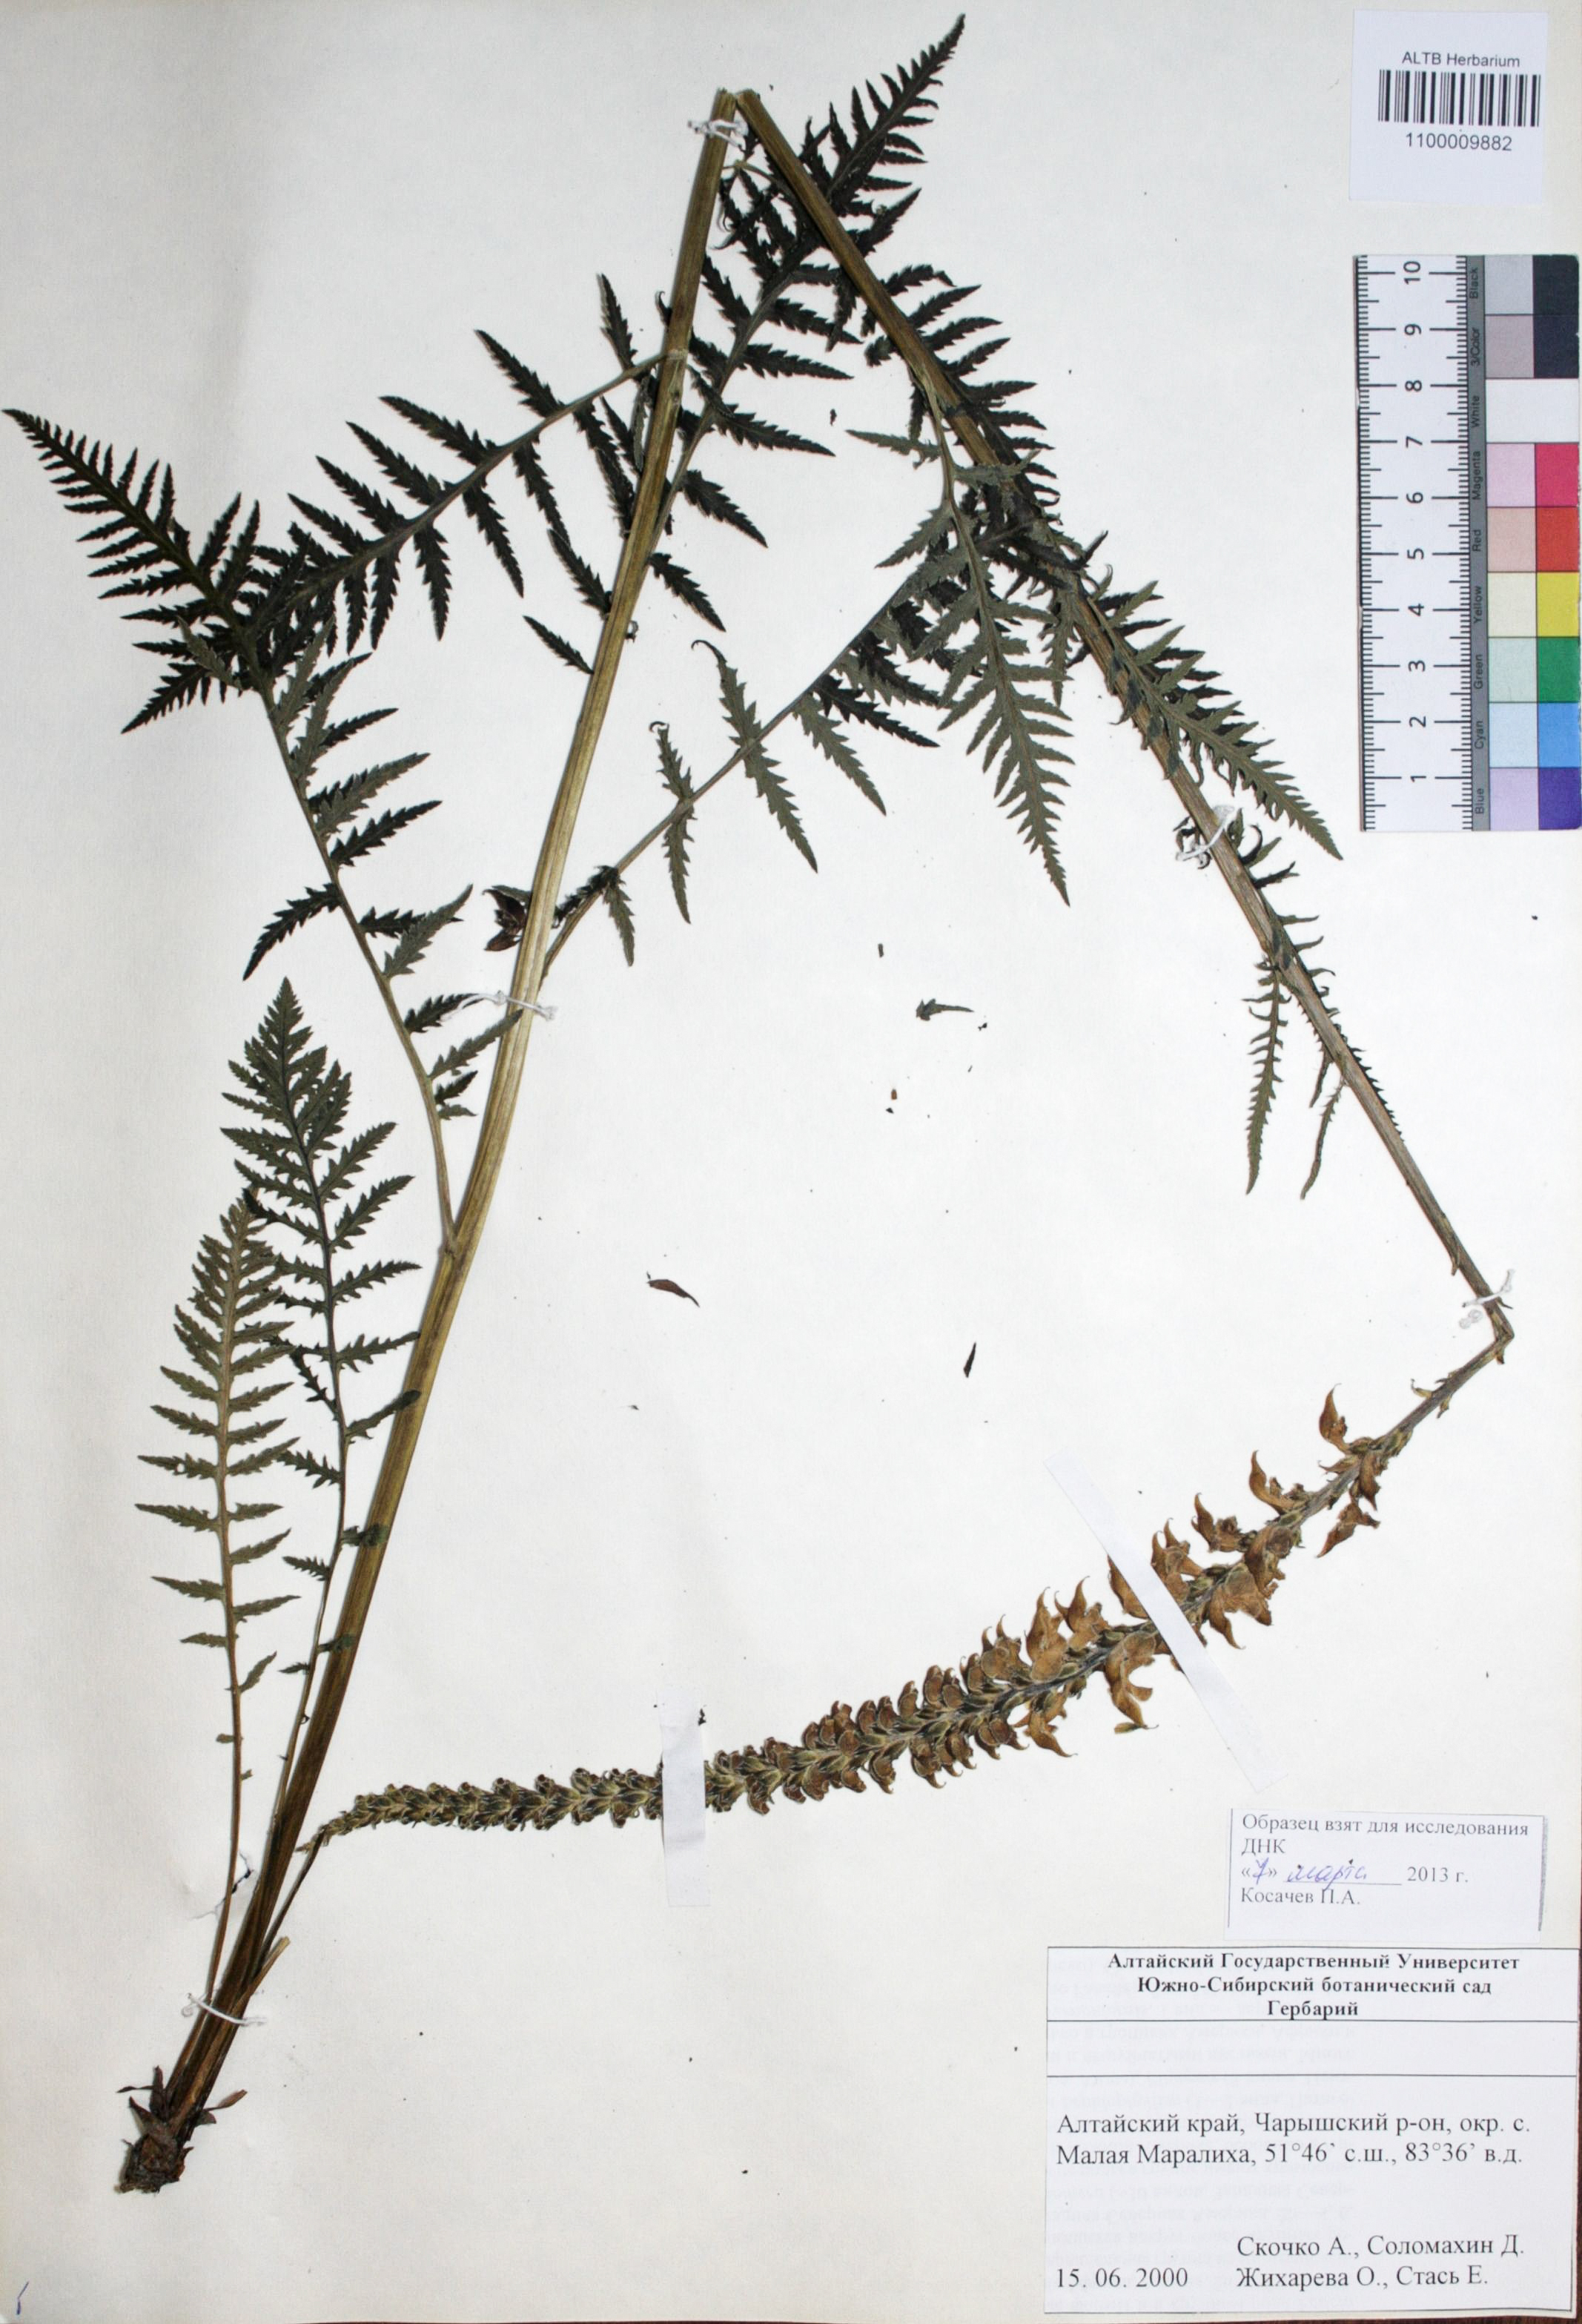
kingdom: Plantae
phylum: Tracheophyta
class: Magnoliopsida
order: Lamiales
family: Orobanchaceae
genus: Pedicularis
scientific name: Pedicularis proboscidea
